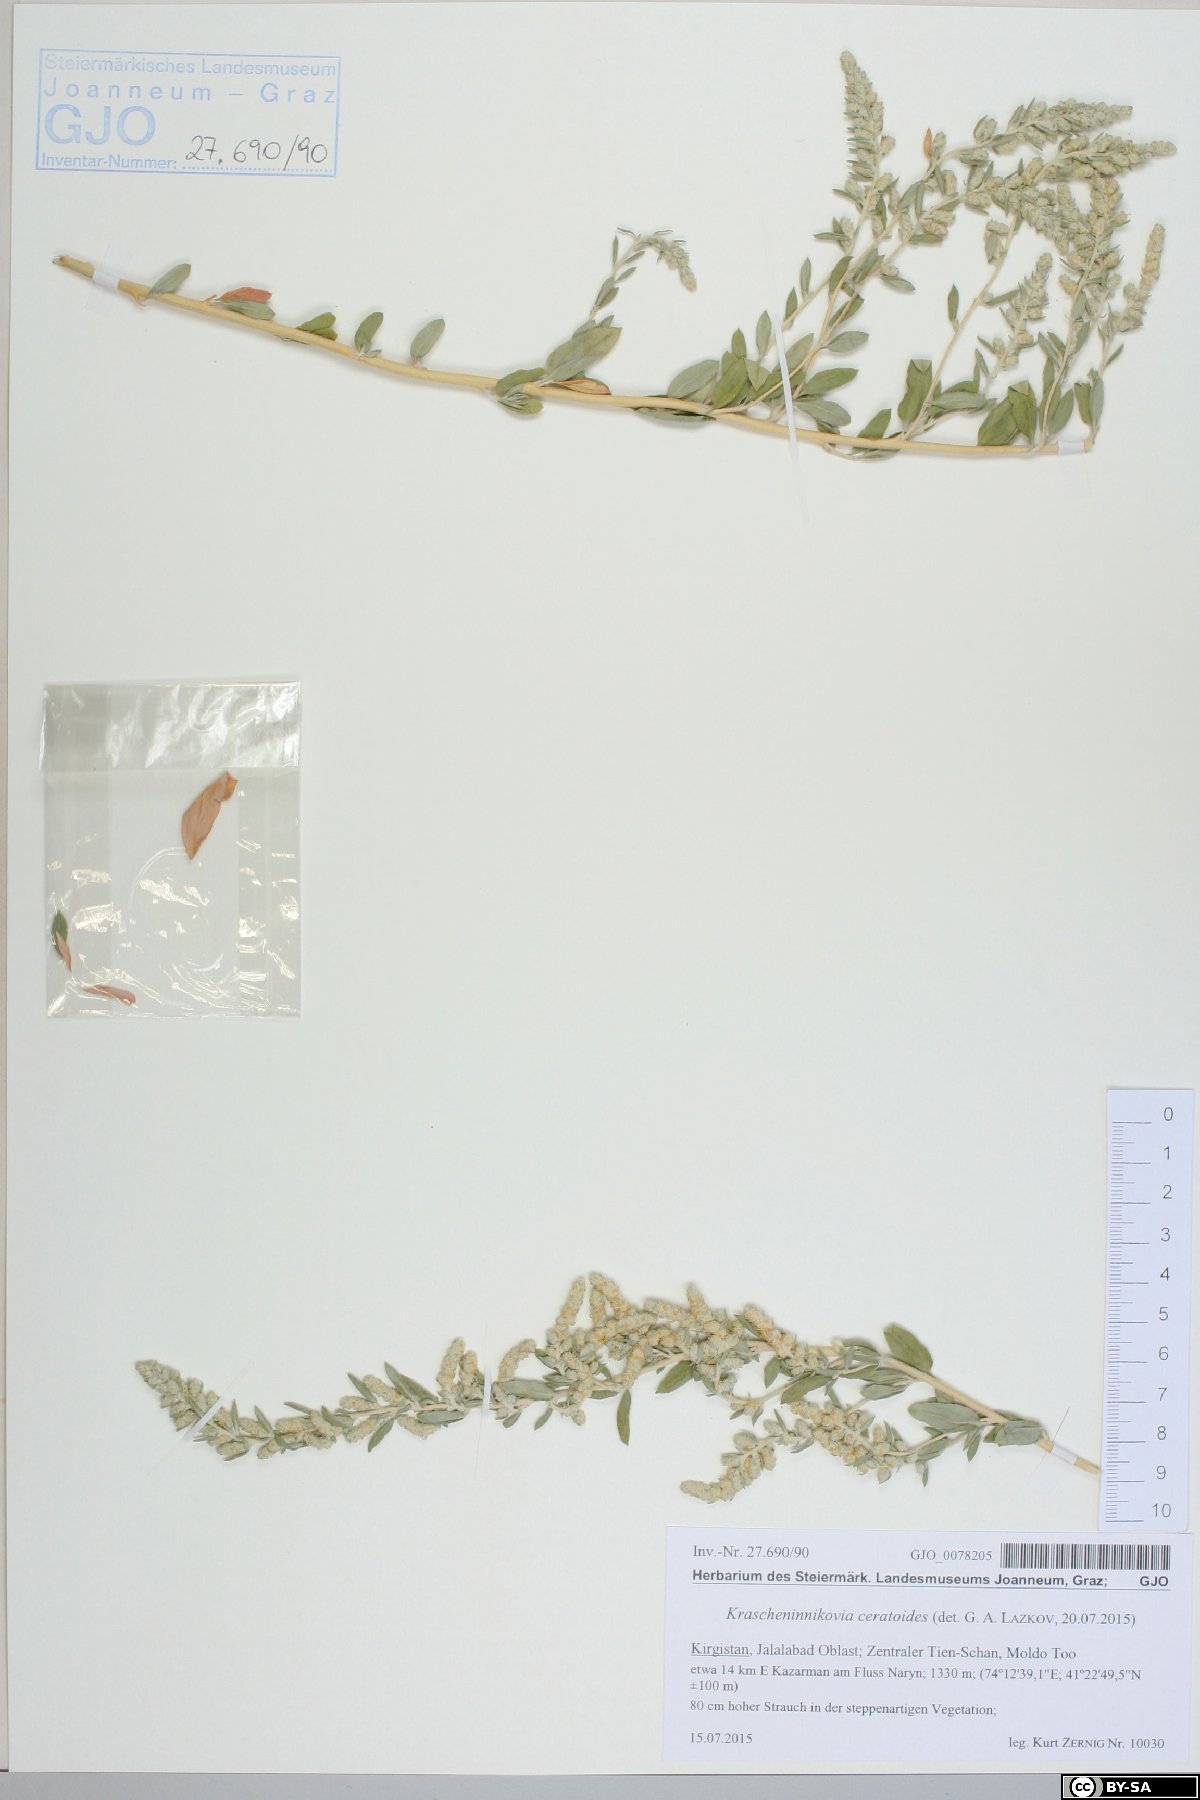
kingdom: Plantae
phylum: Tracheophyta
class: Magnoliopsida
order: Caryophyllales
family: Amaranthaceae
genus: Krascheninnikovia
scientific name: Krascheninnikovia ceratoides
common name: Pamirian winterfat
